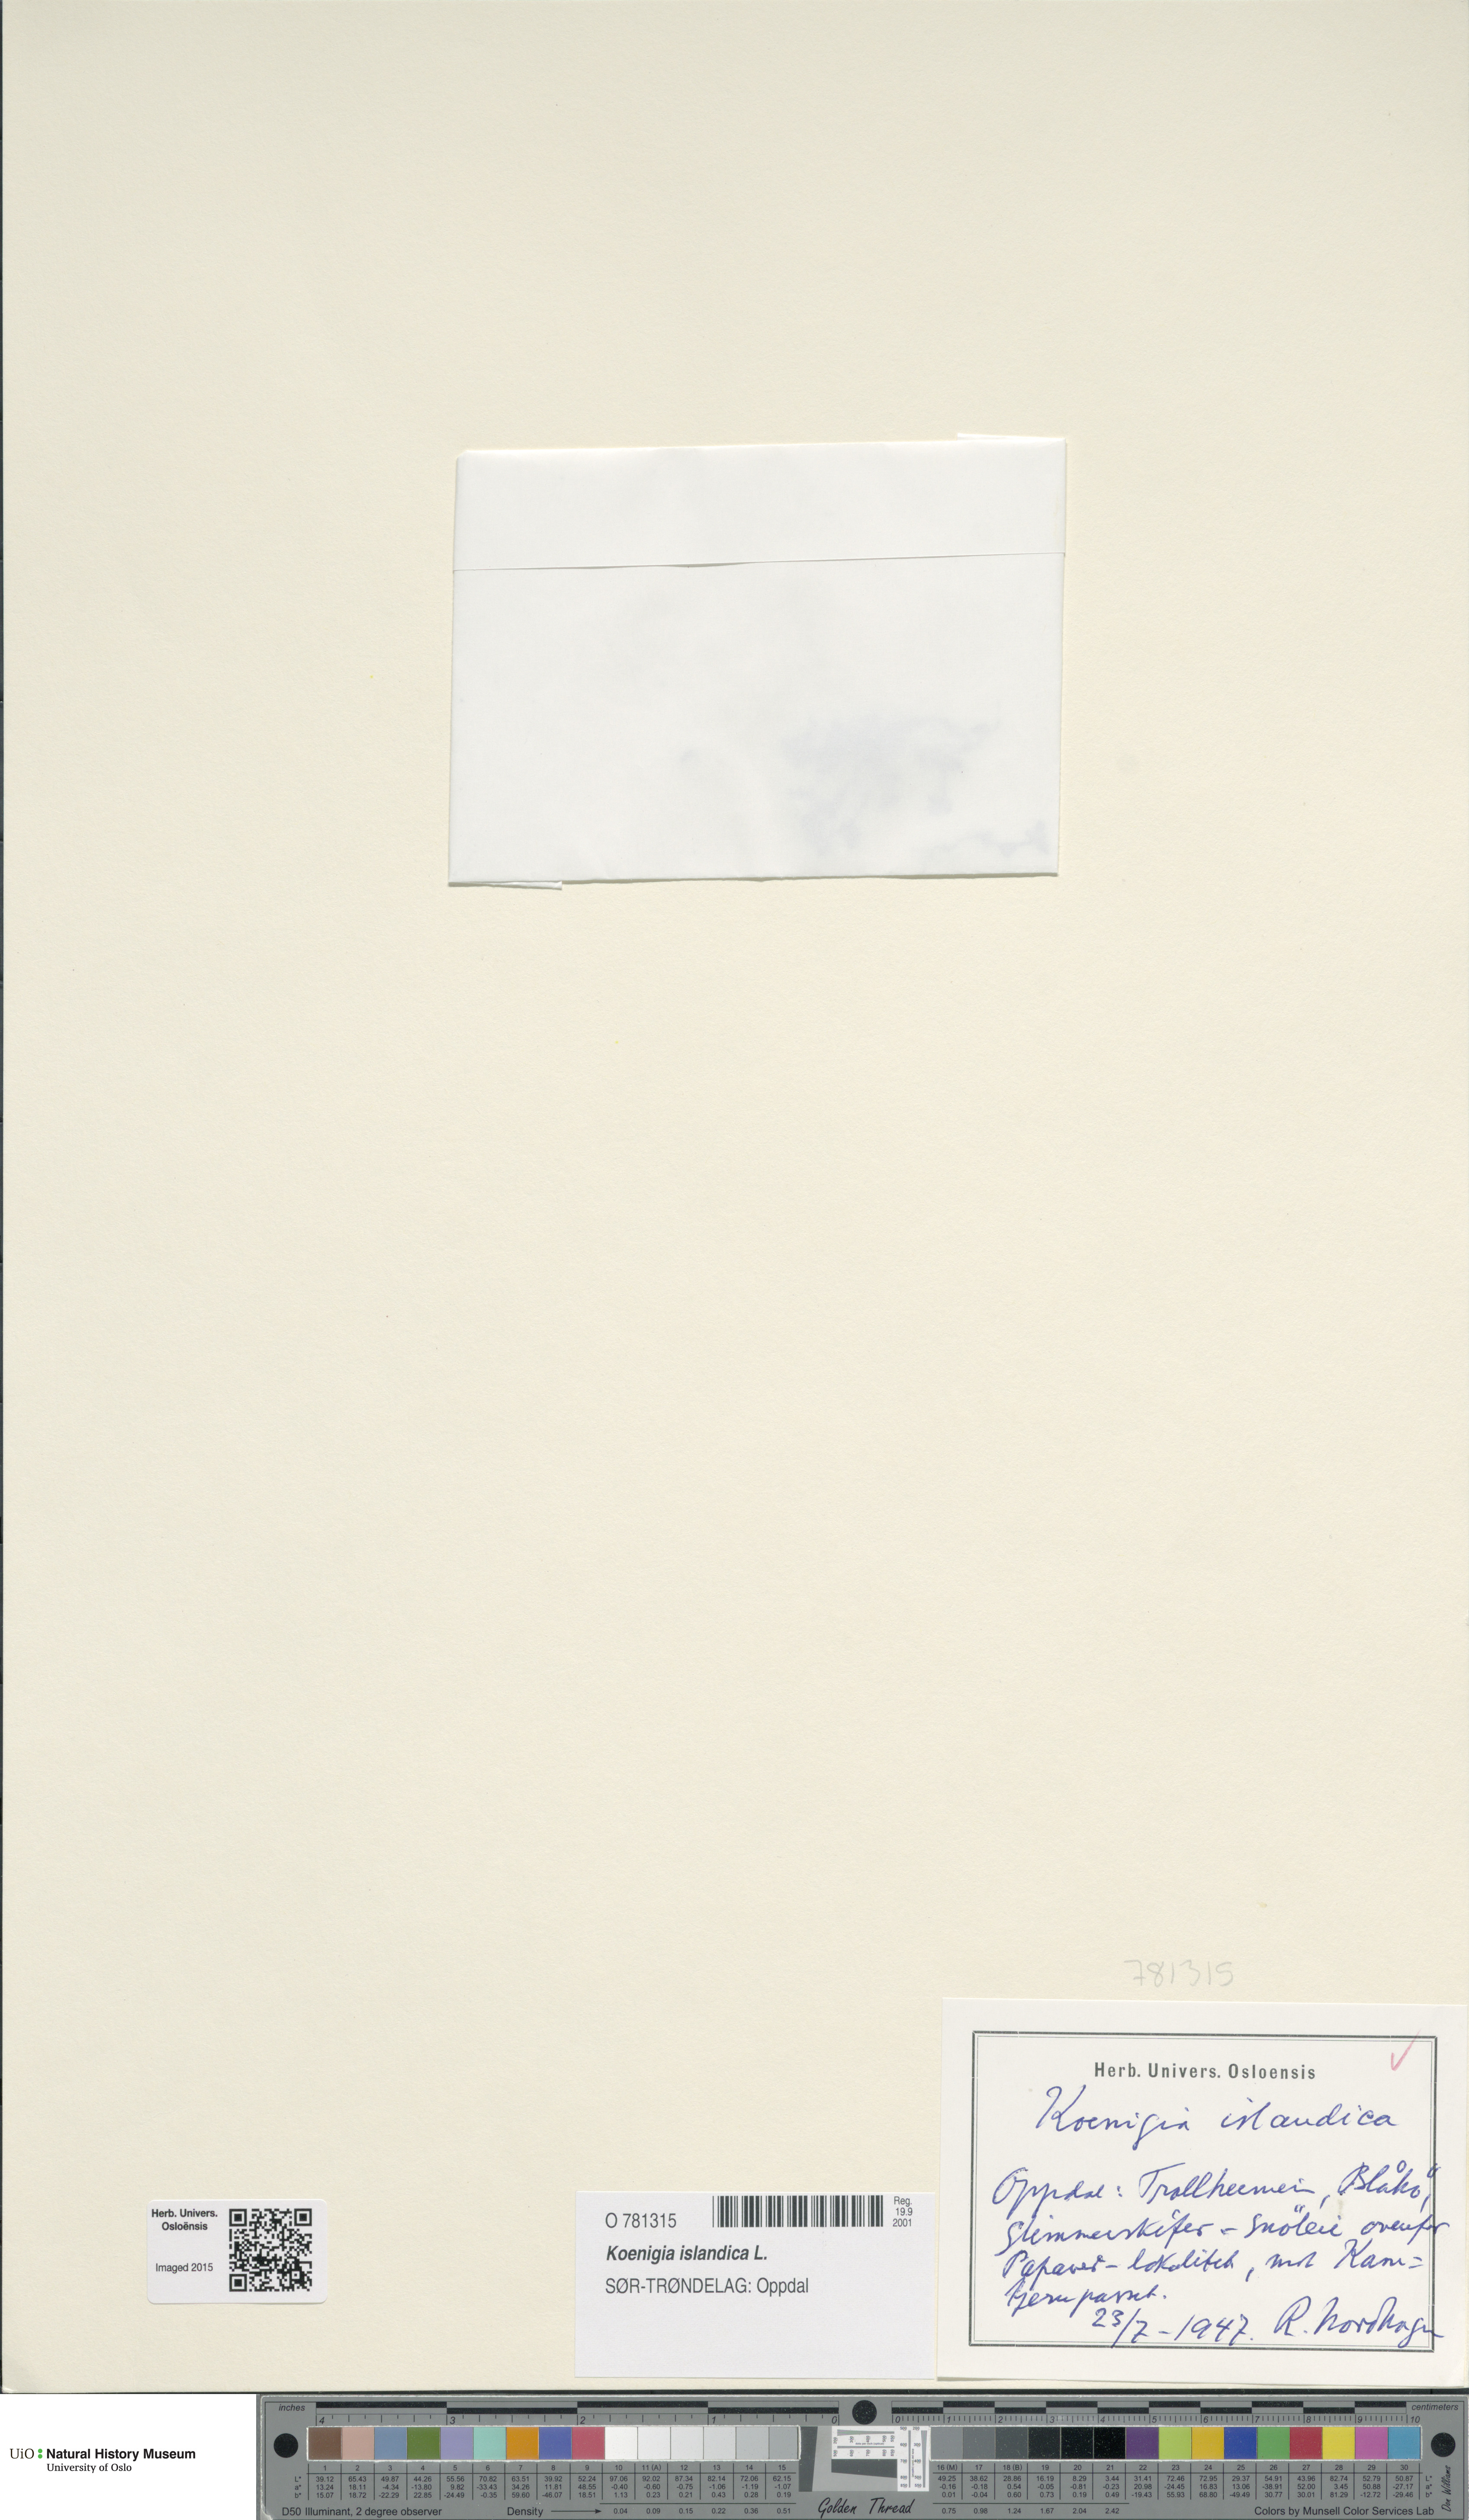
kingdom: Plantae
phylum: Tracheophyta
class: Magnoliopsida
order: Caryophyllales
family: Polygonaceae
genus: Koenigia
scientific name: Koenigia islandica
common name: Iceland-purslane
